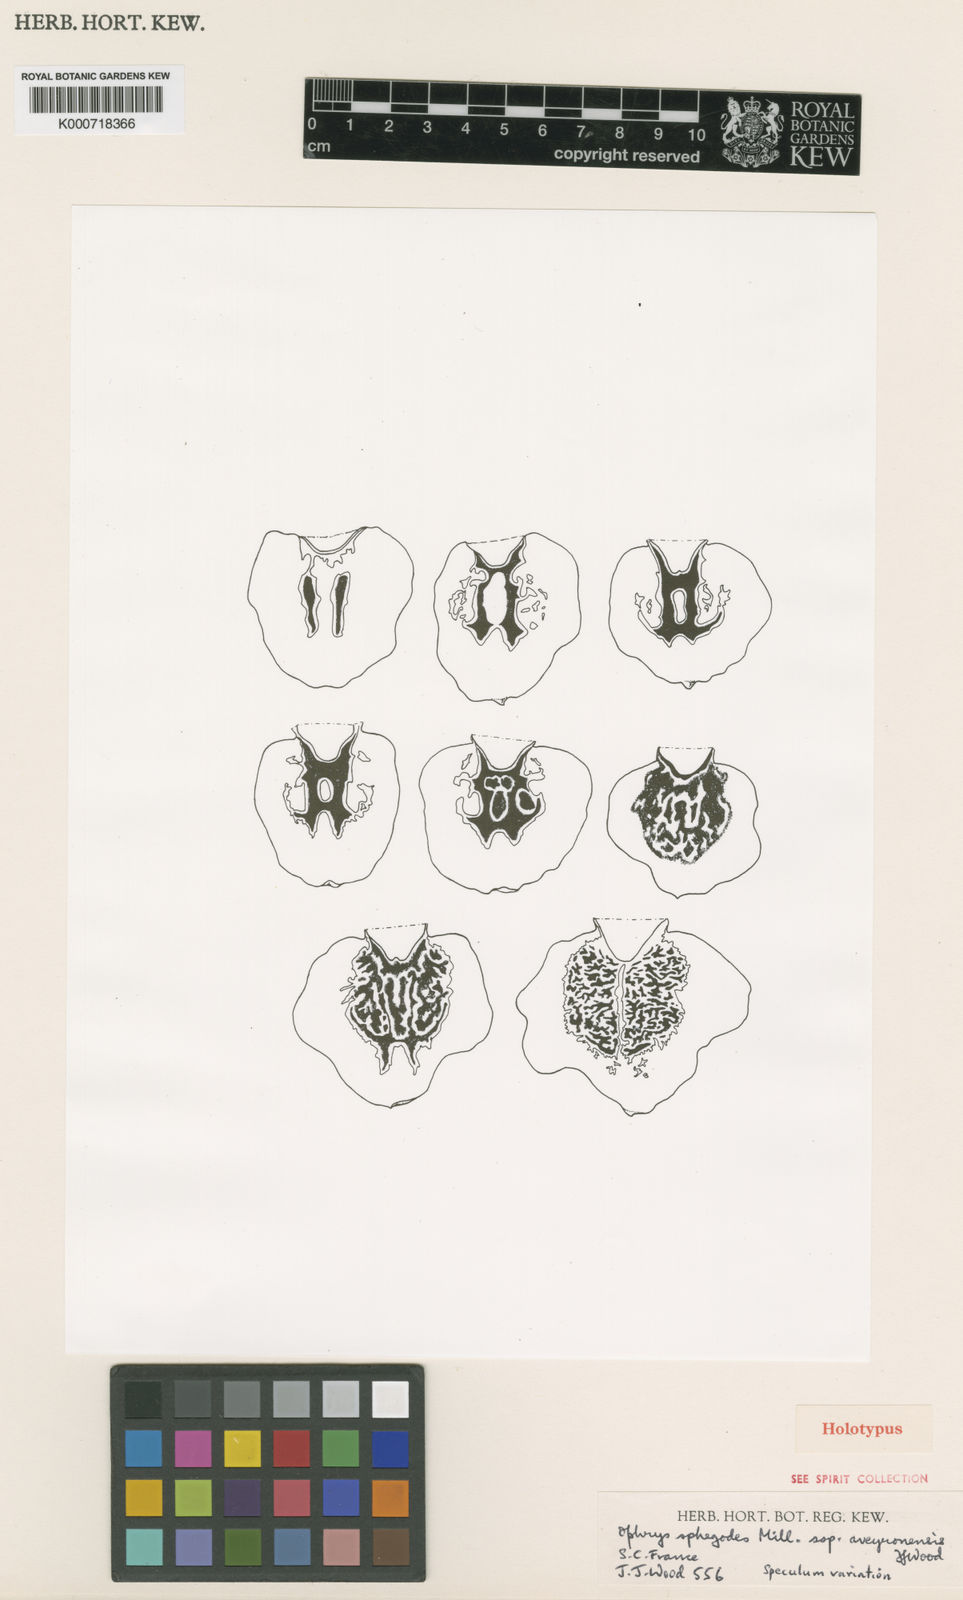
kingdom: Plantae
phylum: Tracheophyta
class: Magnoliopsida
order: Gentianales
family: Apocynaceae
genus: Tabernaemontana
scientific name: Tabernaemontana pachysiphon
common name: Giant pinwheel-flower
